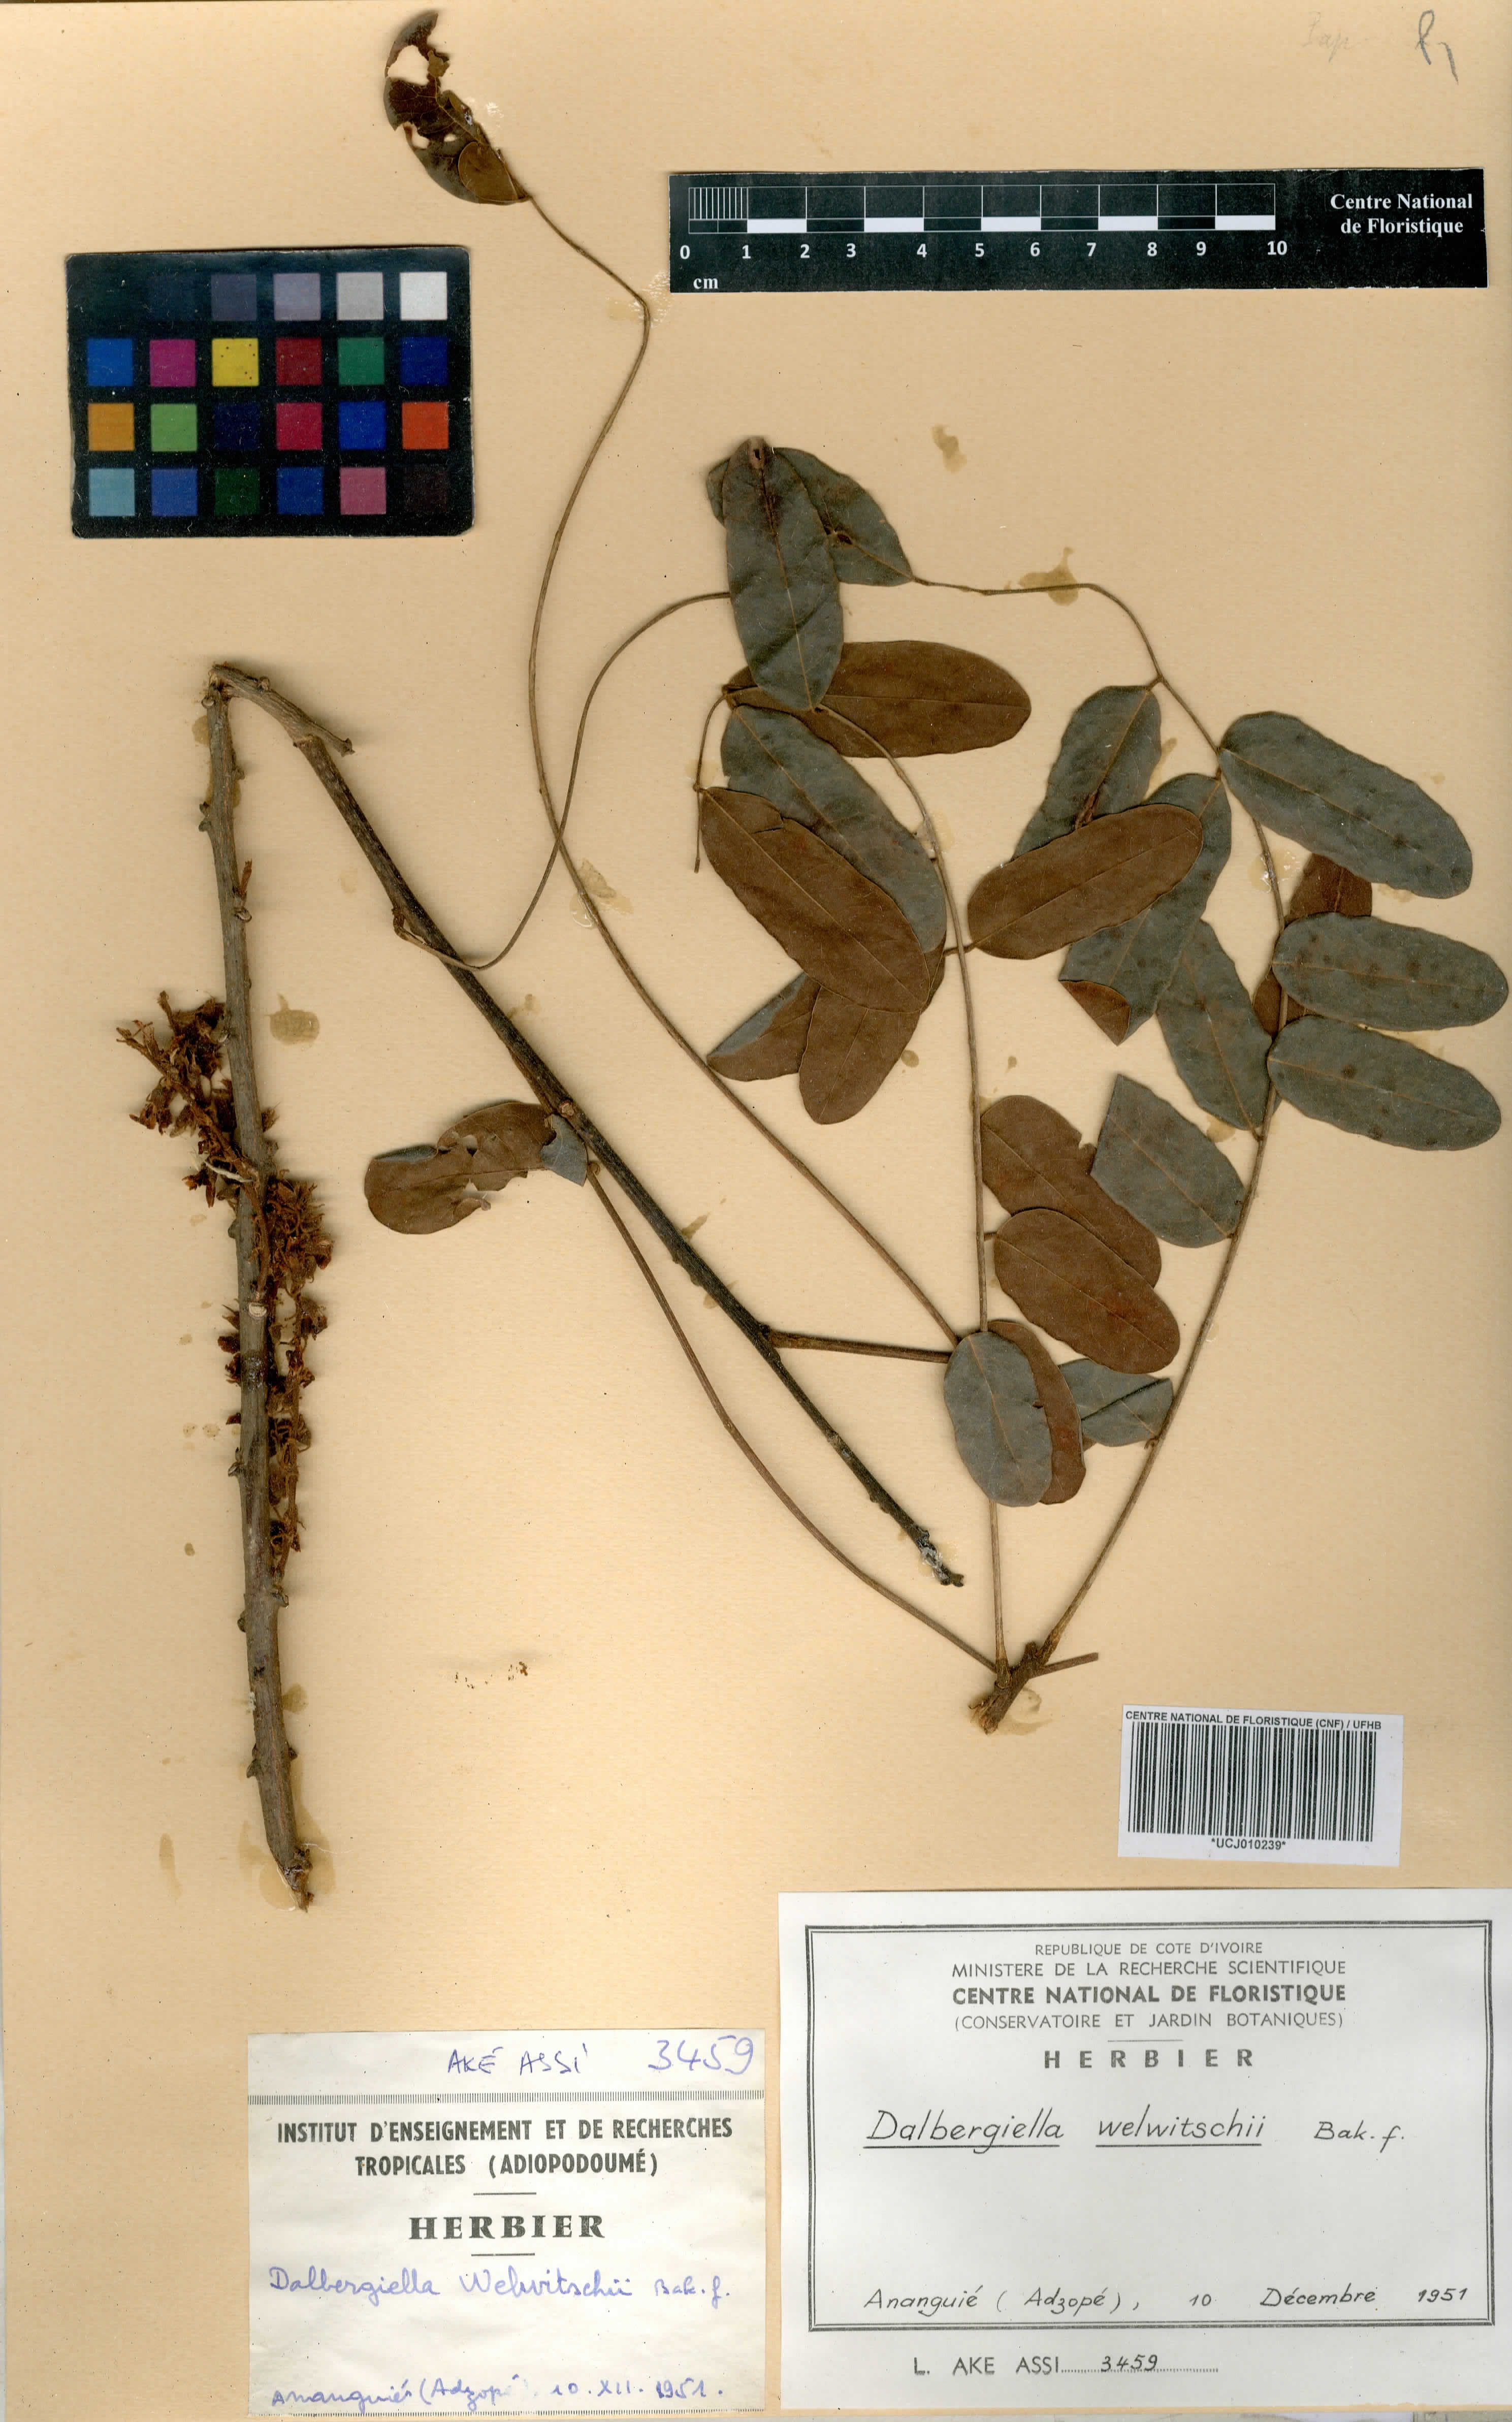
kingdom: Plantae
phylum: Tracheophyta
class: Magnoliopsida
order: Fabales
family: Fabaceae
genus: Dalbergiella
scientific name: Dalbergiella welwitschii
